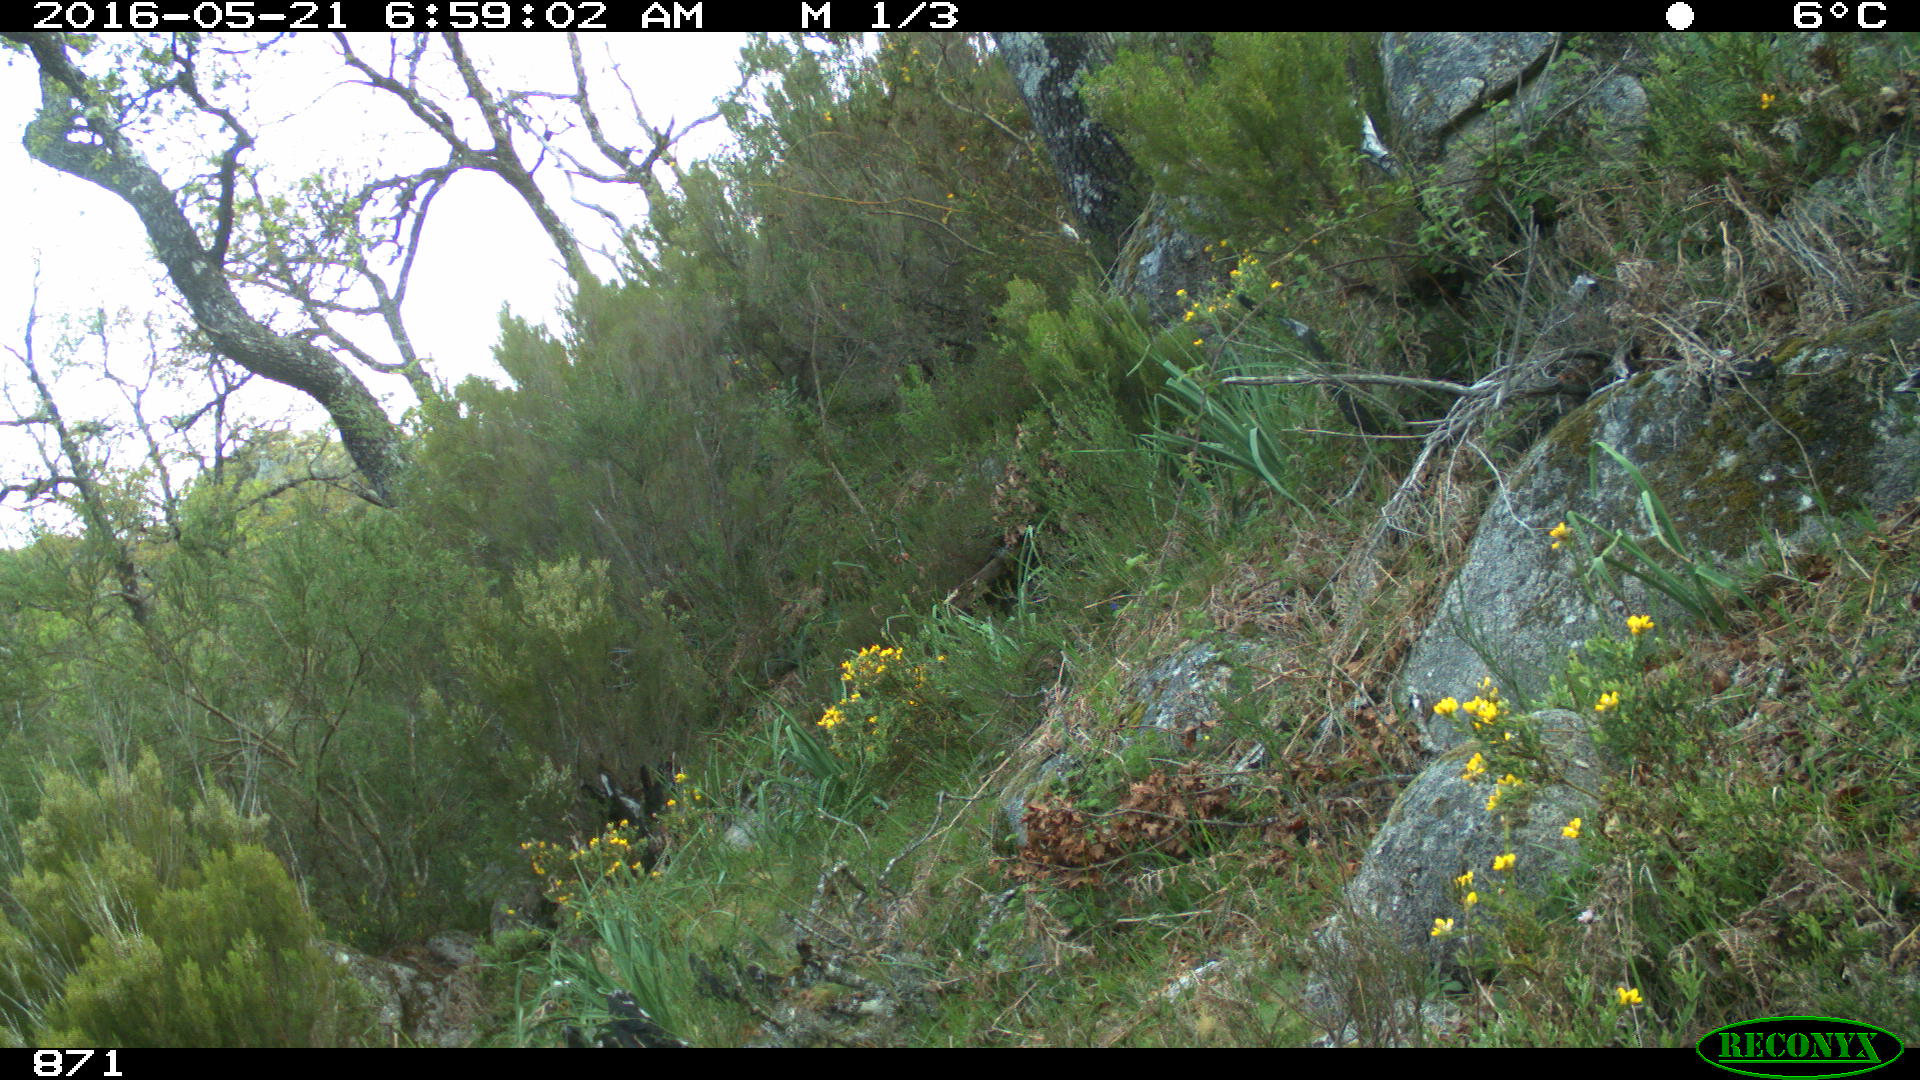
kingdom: Animalia
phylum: Chordata
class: Mammalia
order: Artiodactyla
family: Bovidae
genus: Bos
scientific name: Bos taurus
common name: Domesticated cattle
